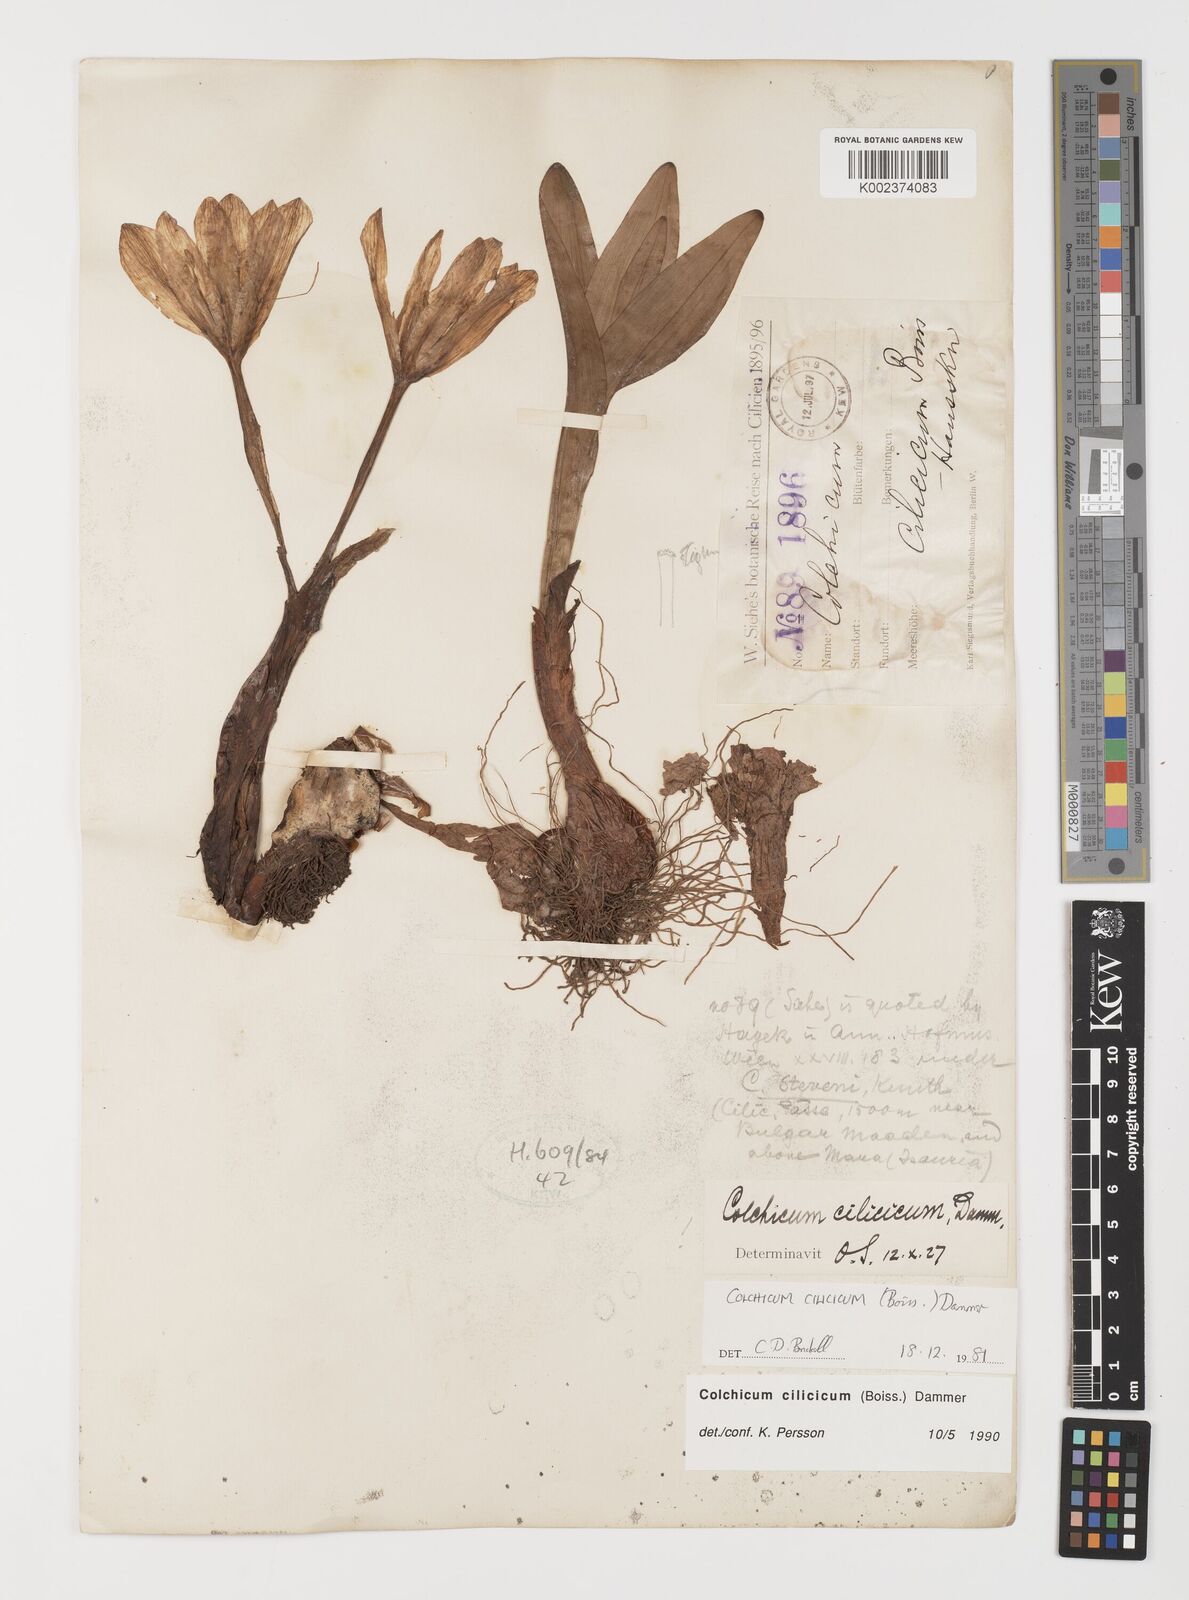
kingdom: Plantae
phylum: Tracheophyta
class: Liliopsida
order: Liliales
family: Colchicaceae
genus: Colchicum
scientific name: Colchicum cilicicum
